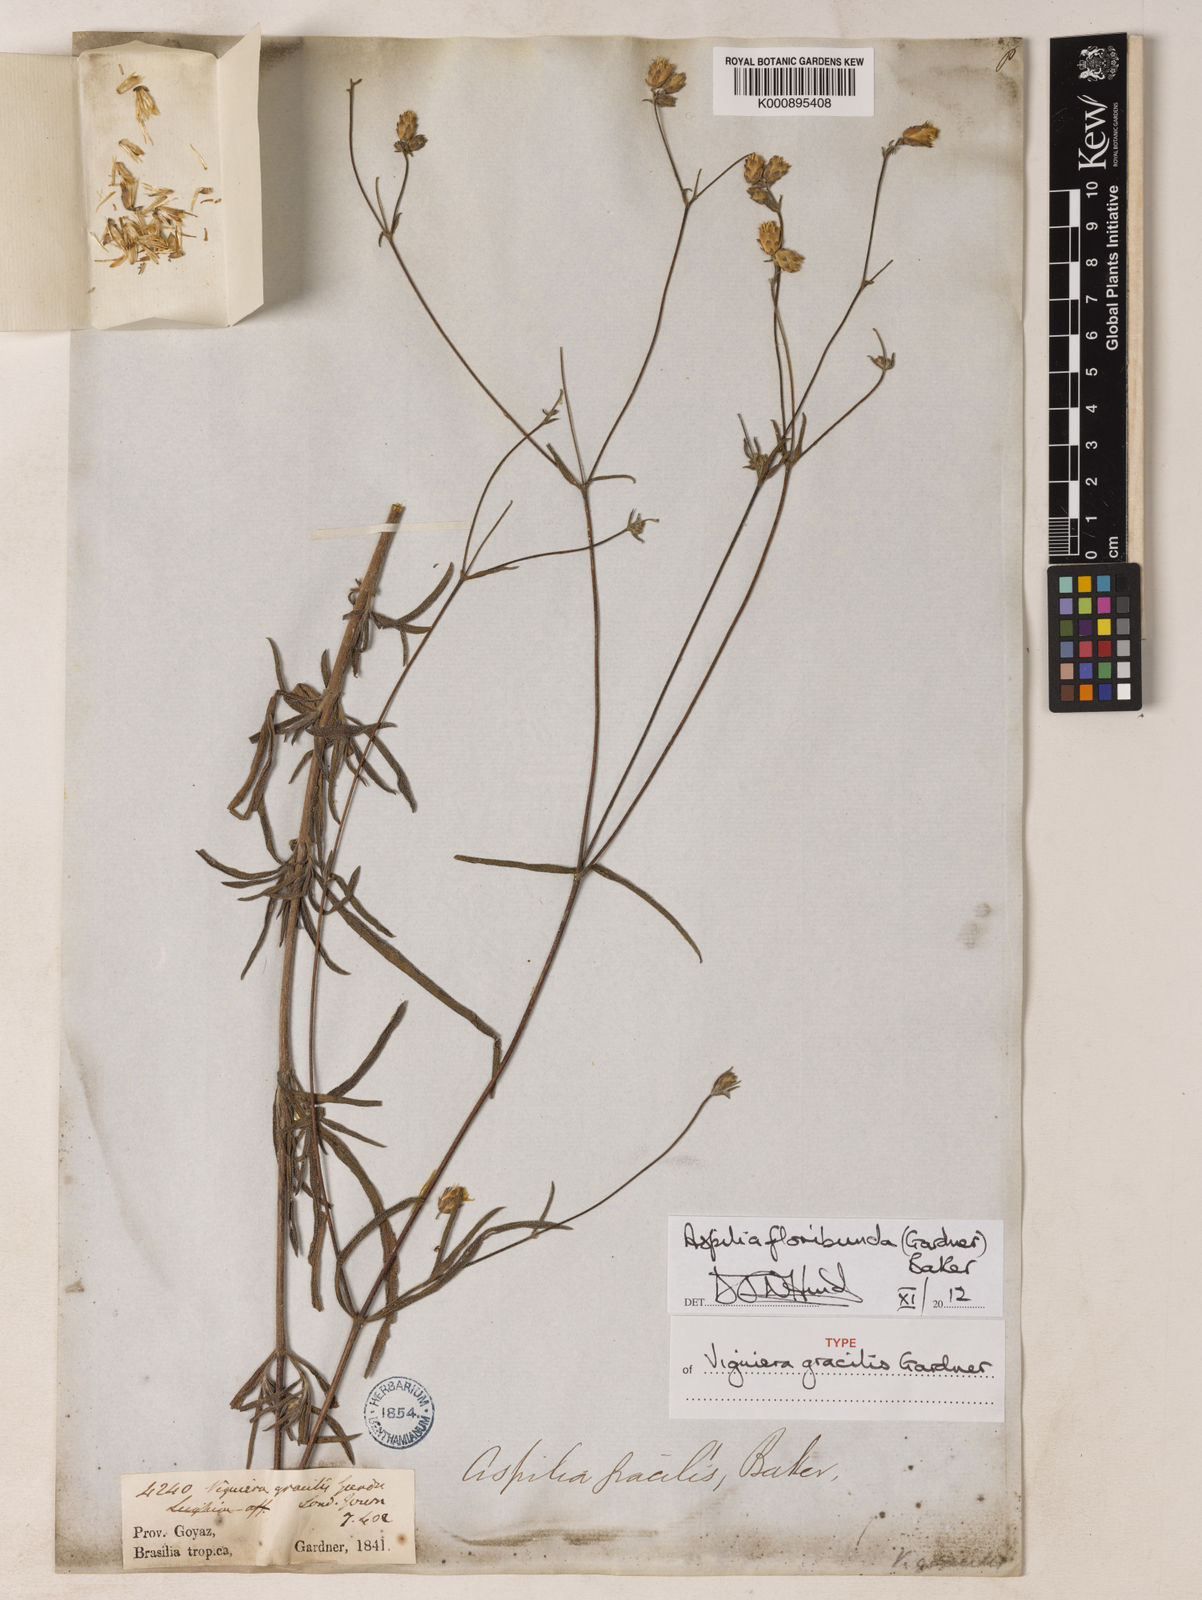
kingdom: Plantae
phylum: Tracheophyta
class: Magnoliopsida
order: Asterales
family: Asteraceae
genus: Wedelia
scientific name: Wedelia floribunda
